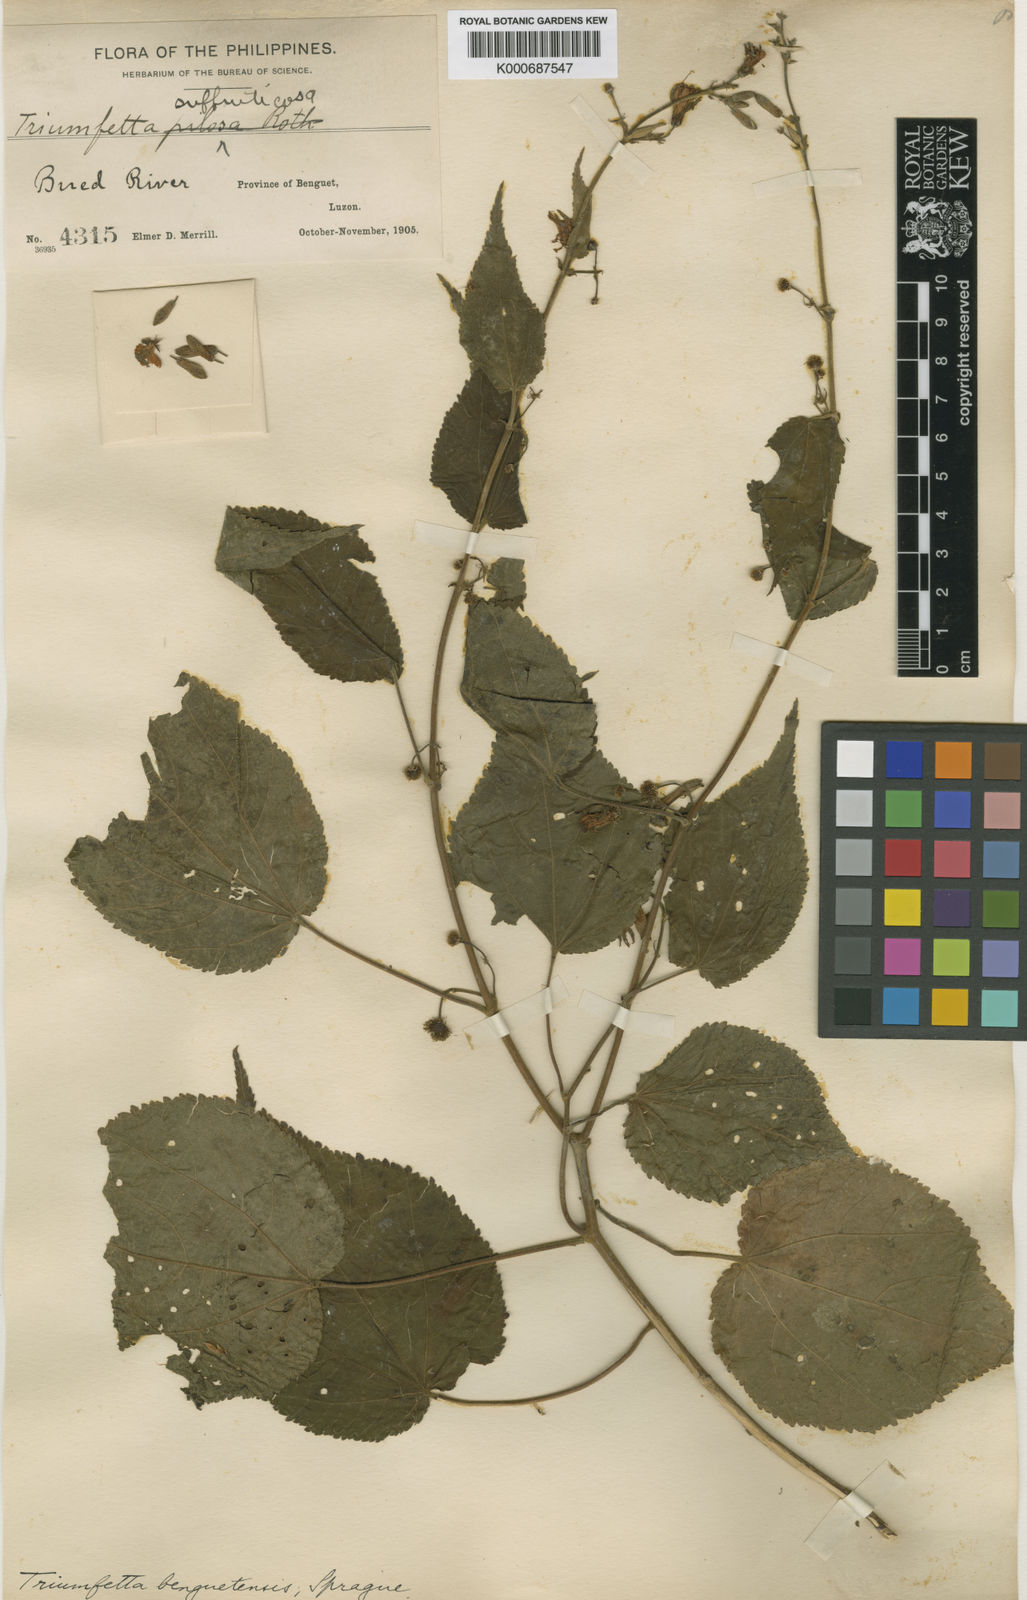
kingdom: Plantae
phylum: Tracheophyta
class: Magnoliopsida
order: Malvales
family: Malvaceae
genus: Triumfetta
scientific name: Triumfetta benguetensis
